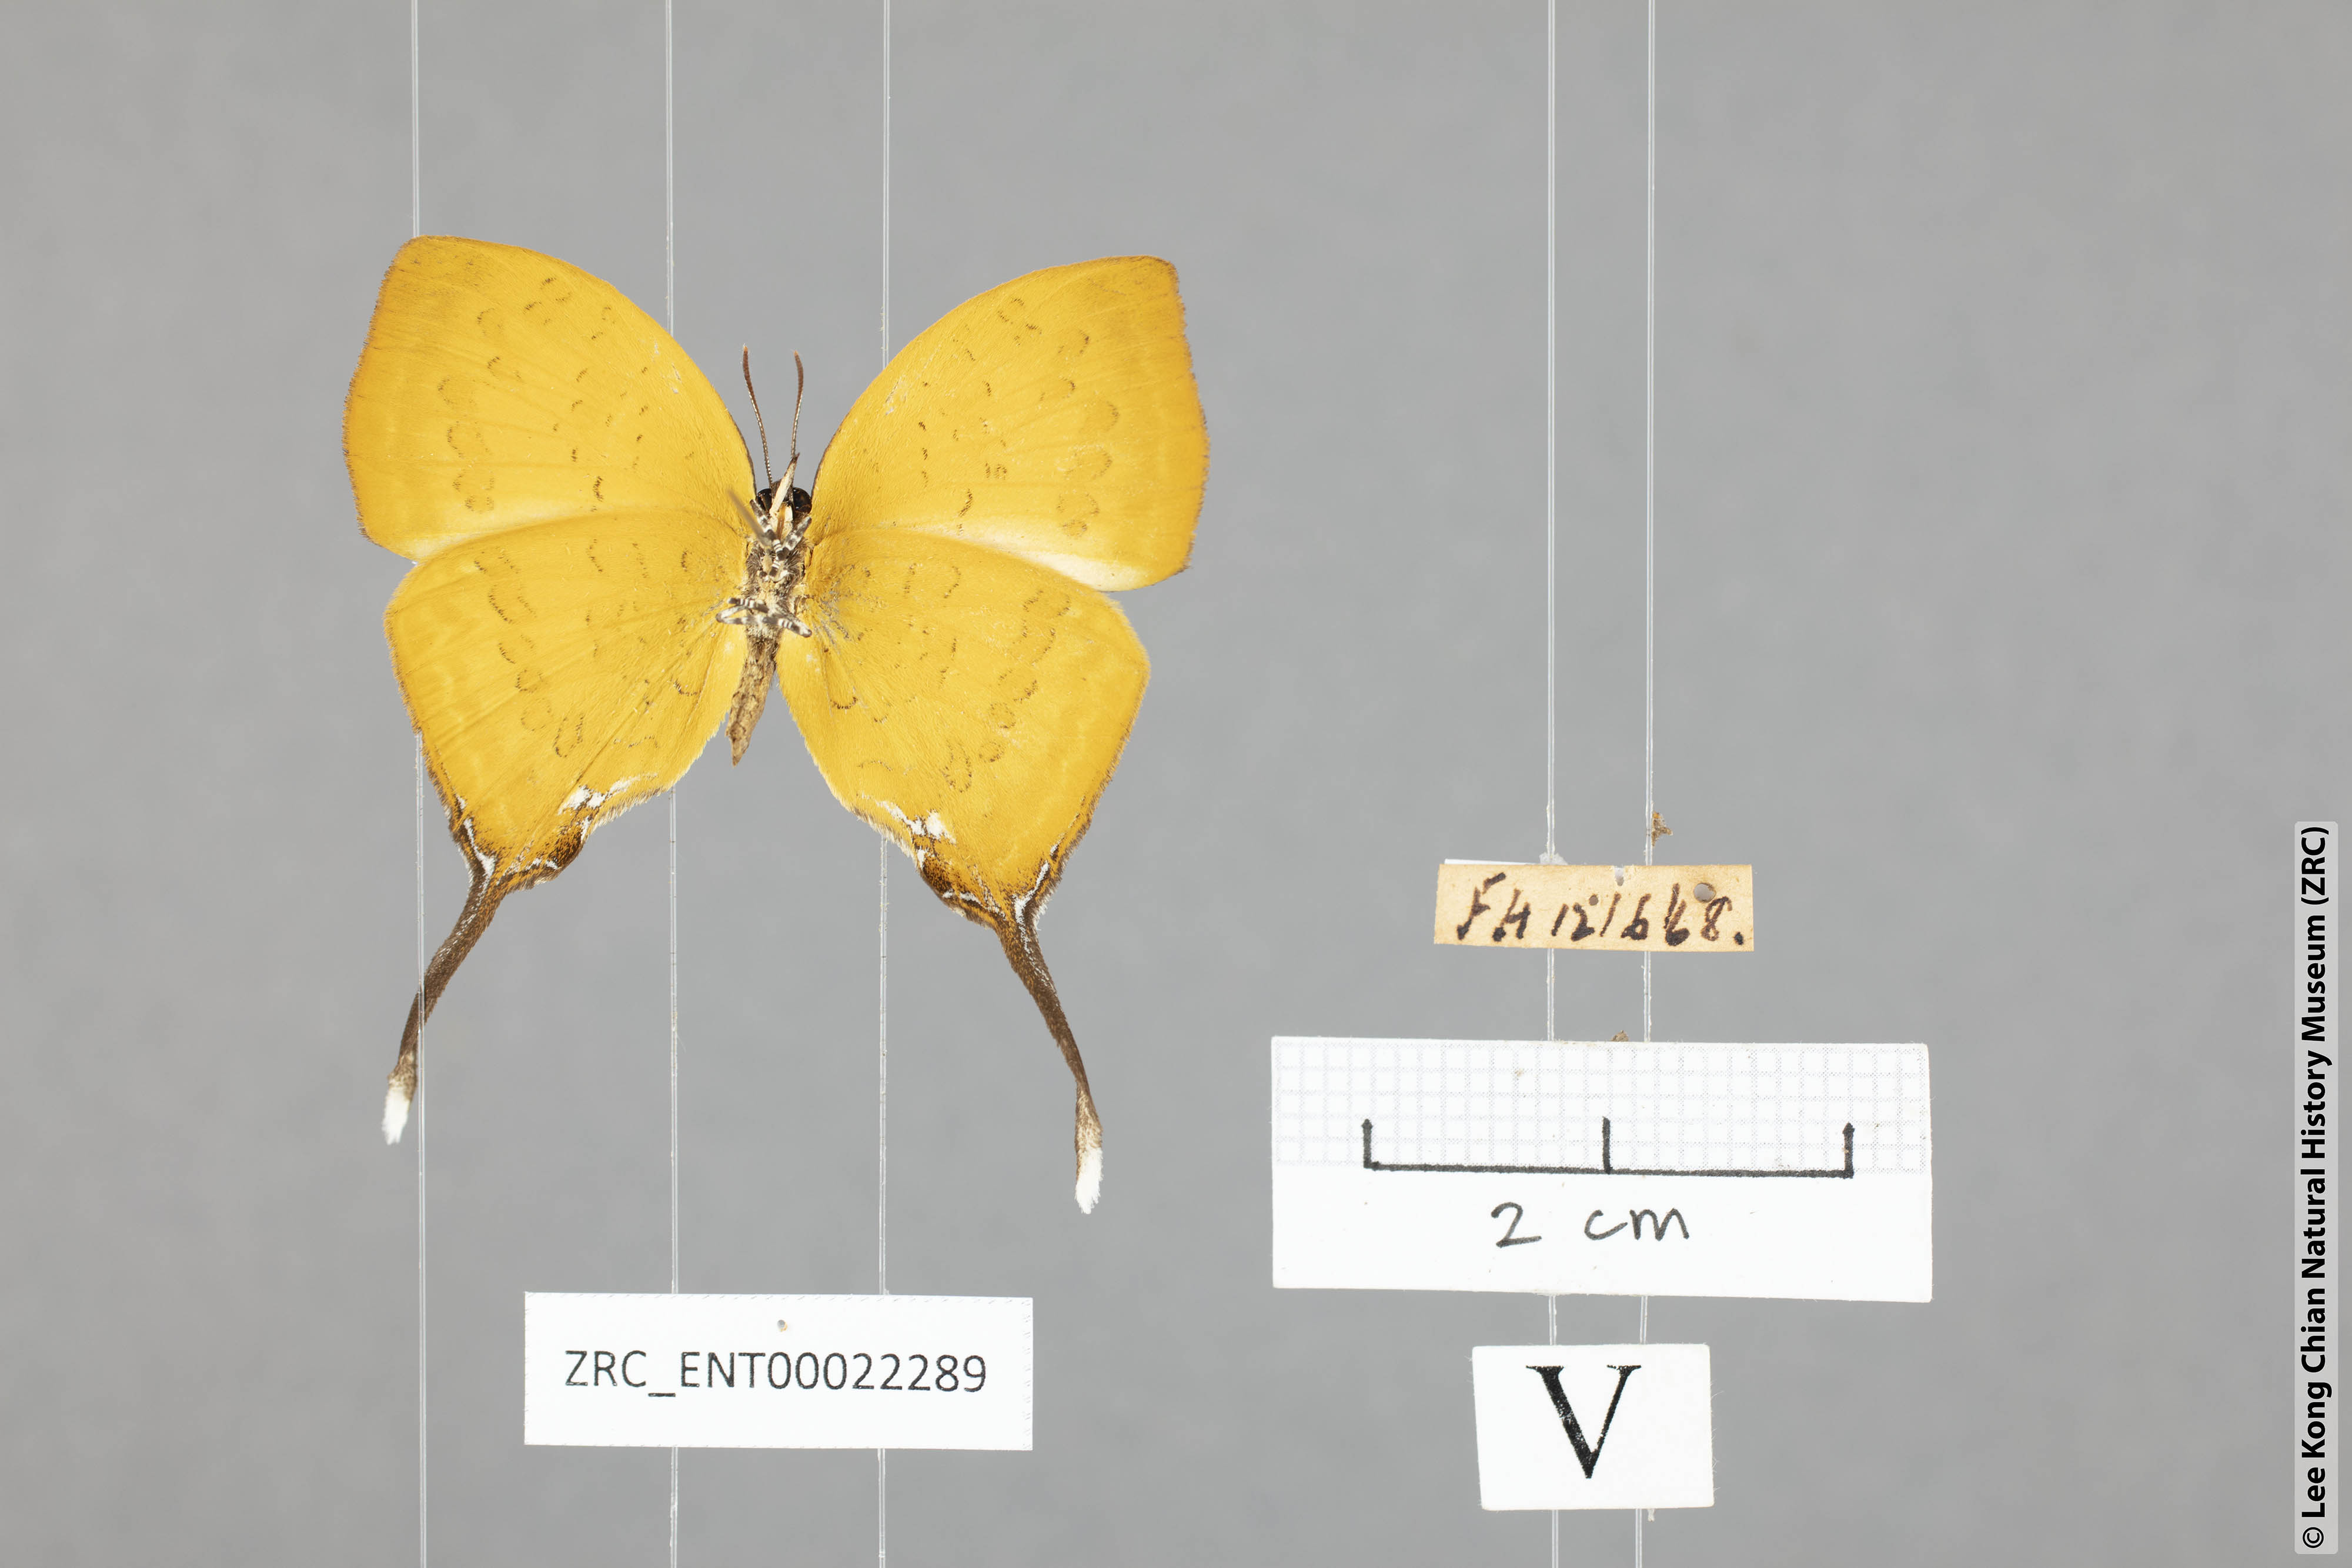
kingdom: Animalia
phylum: Arthropoda
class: Insecta
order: Lepidoptera
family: Lycaenidae
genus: Yasoda
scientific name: Yasoda pita
